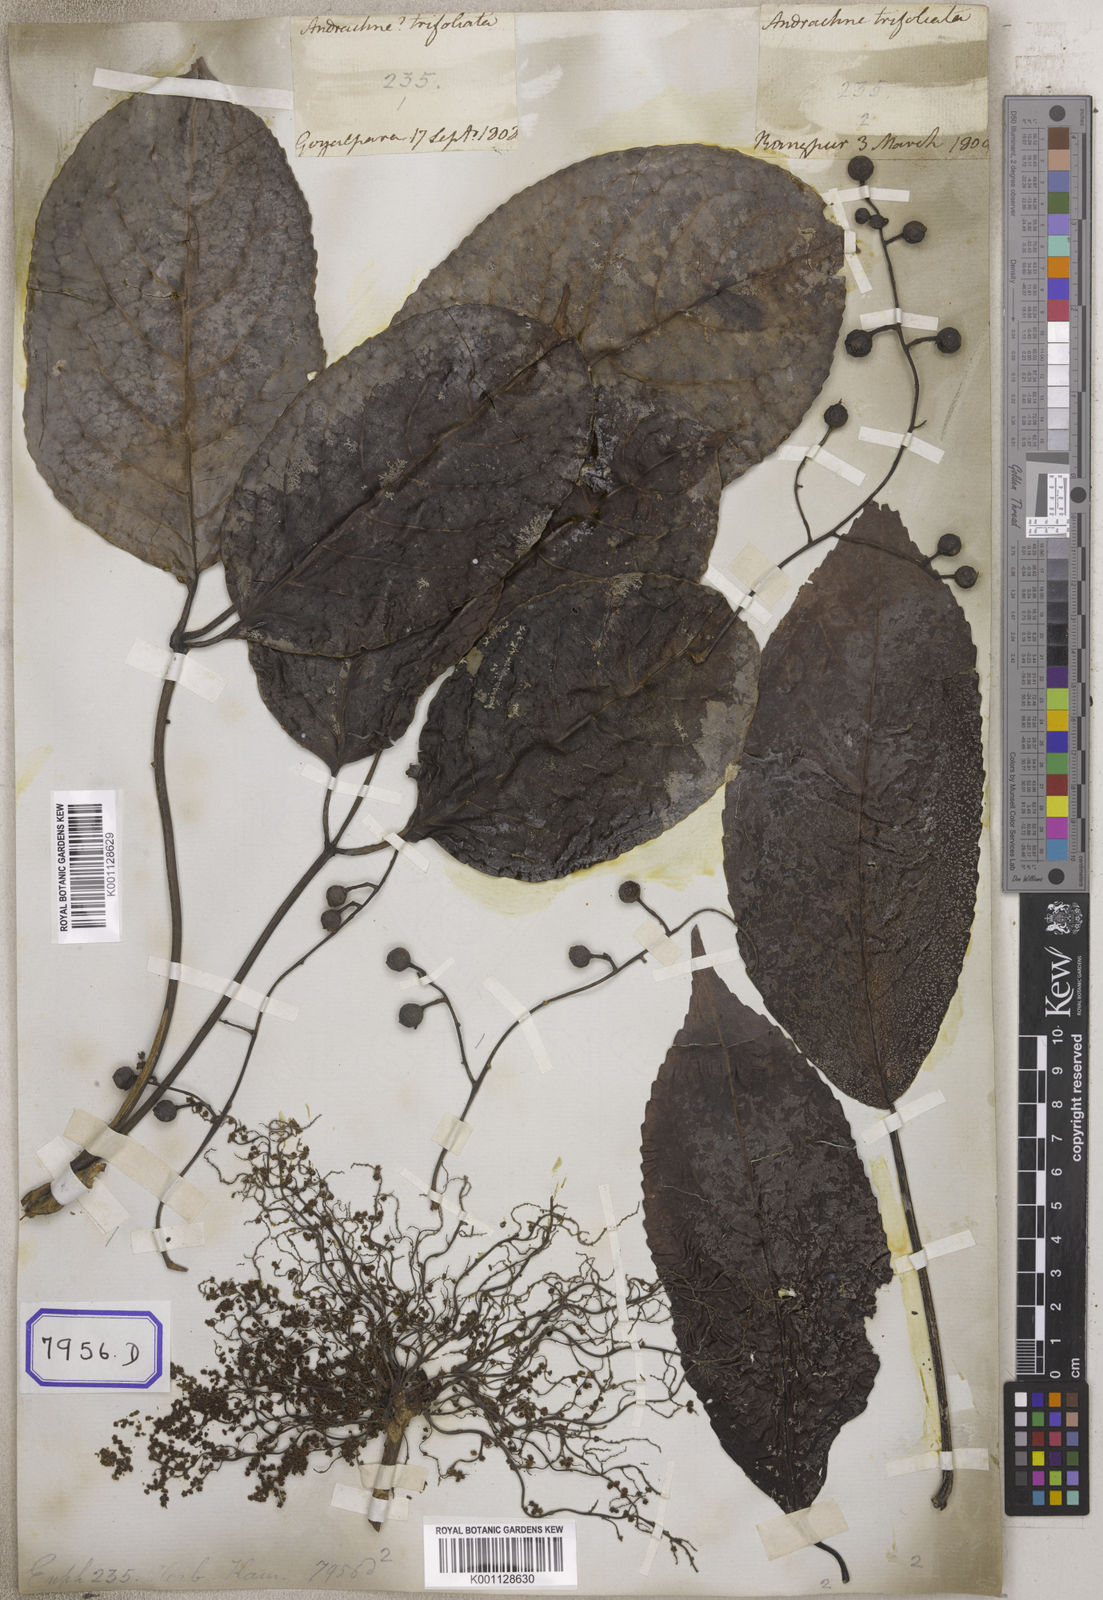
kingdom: Plantae
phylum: Tracheophyta
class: Magnoliopsida
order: Malpighiales
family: Euphorbiaceae
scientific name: Euphorbiaceae
